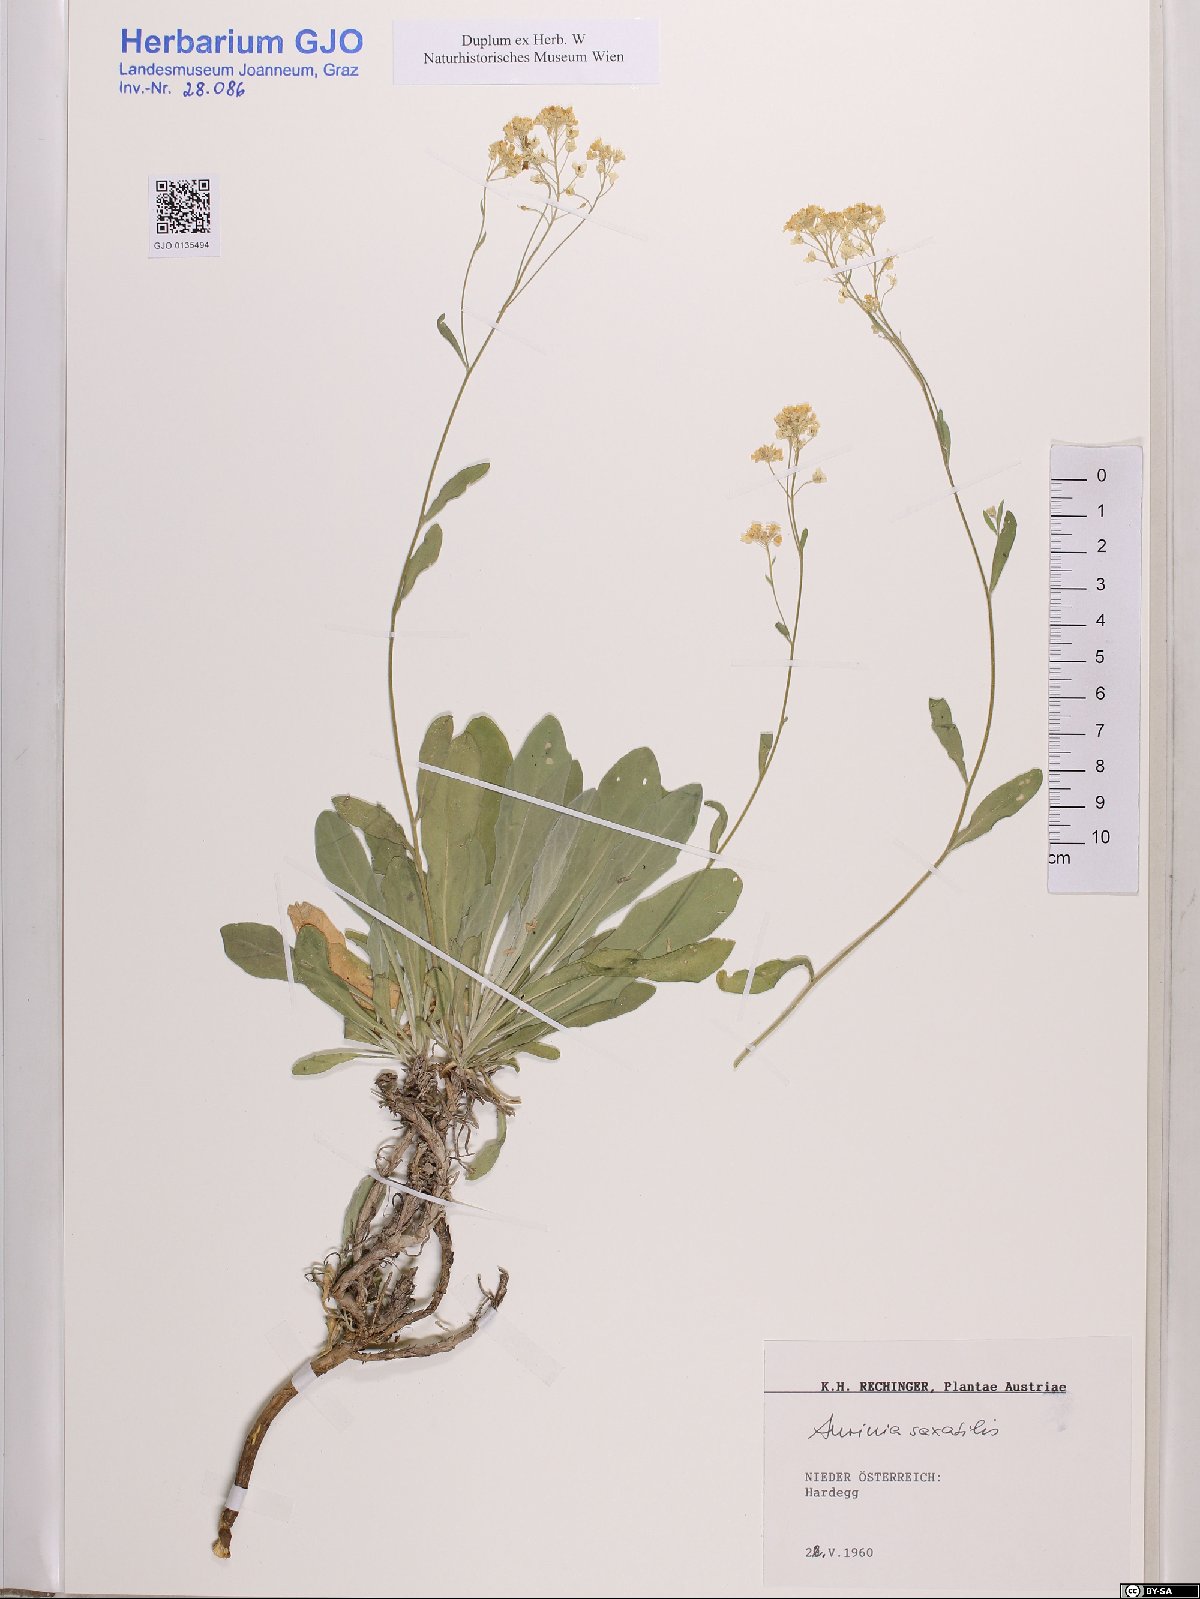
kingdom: Plantae
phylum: Tracheophyta
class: Magnoliopsida
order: Brassicales
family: Brassicaceae
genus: Aurinia
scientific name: Aurinia saxatilis
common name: Golden-tuft alyssum
